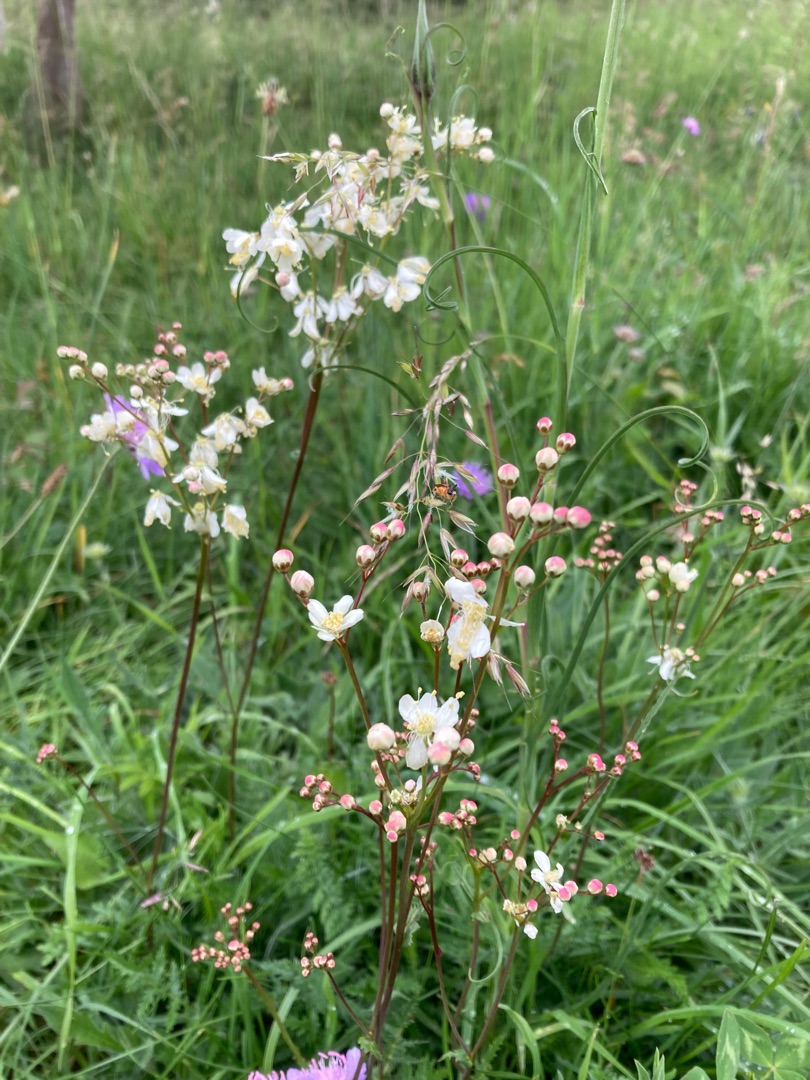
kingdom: Plantae
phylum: Tracheophyta
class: Magnoliopsida
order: Rosales
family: Rosaceae
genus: Filipendula
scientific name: Filipendula vulgaris
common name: Knoldet mjødurt
